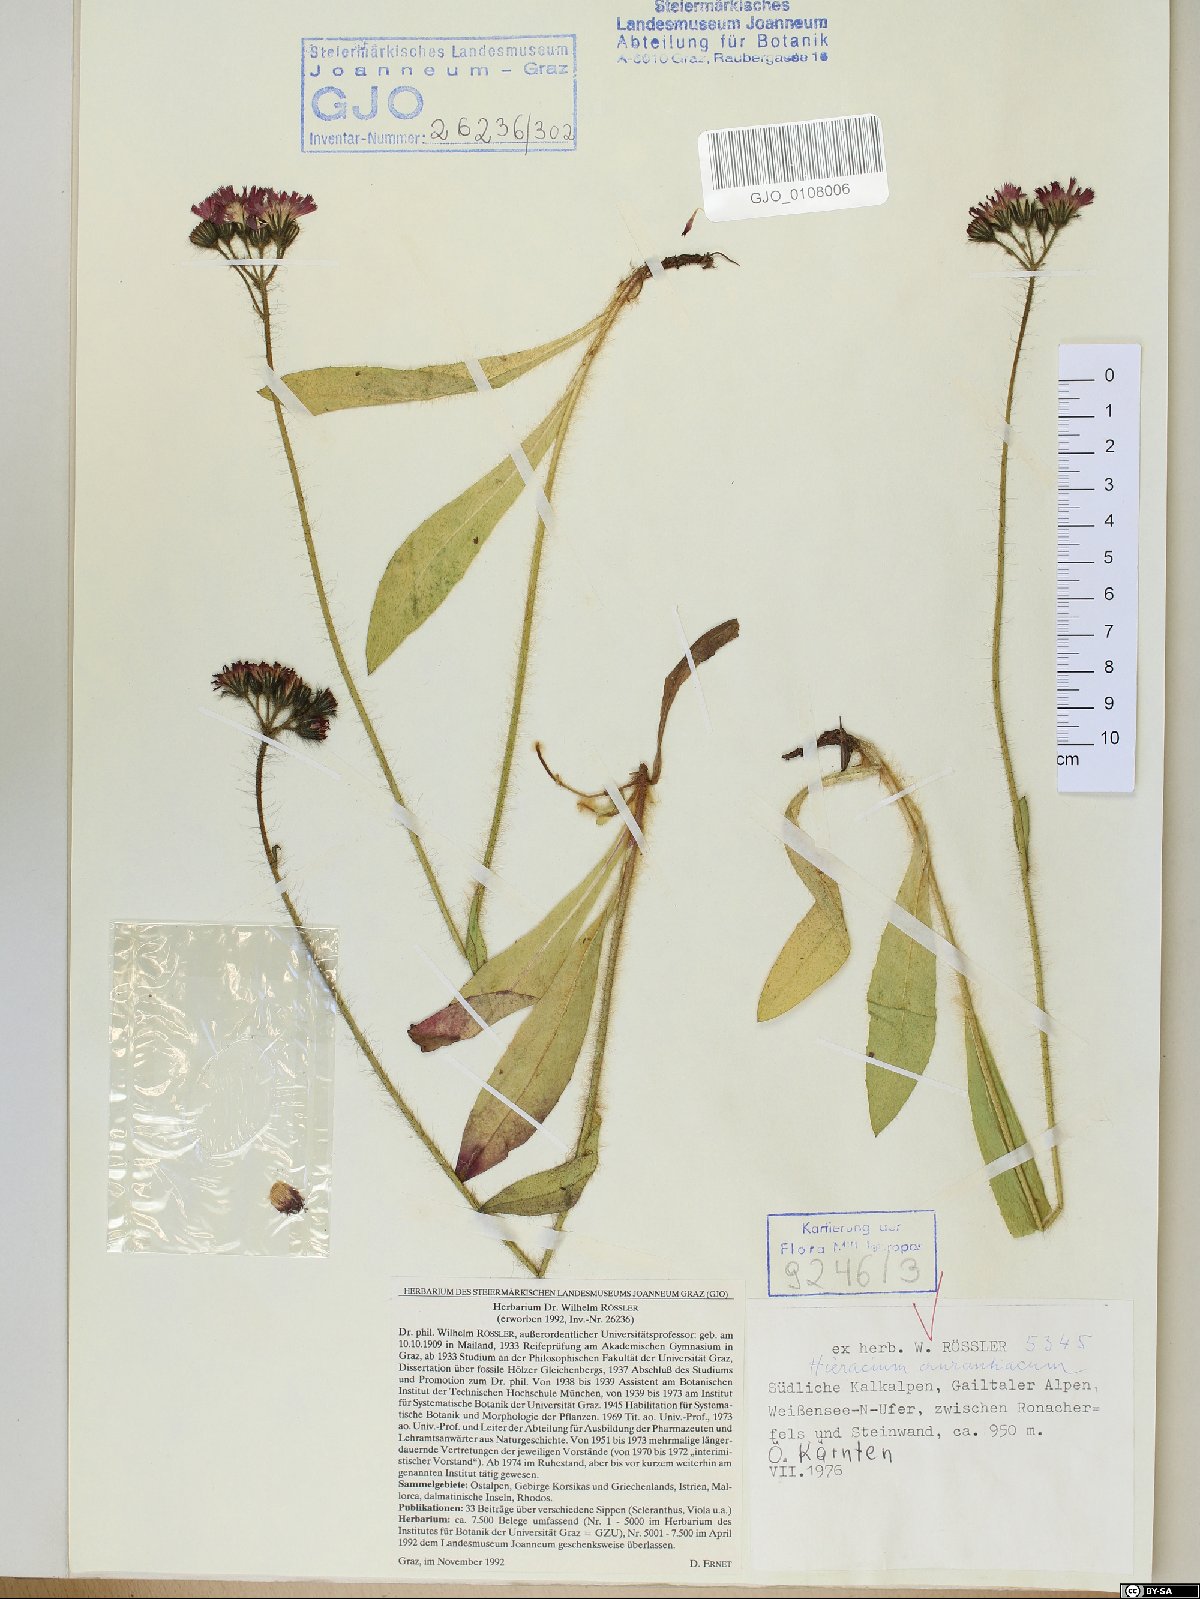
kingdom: Plantae
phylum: Tracheophyta
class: Magnoliopsida
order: Asterales
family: Asteraceae
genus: Pilosella
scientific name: Pilosella aurantiaca
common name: Fox-and-cubs
